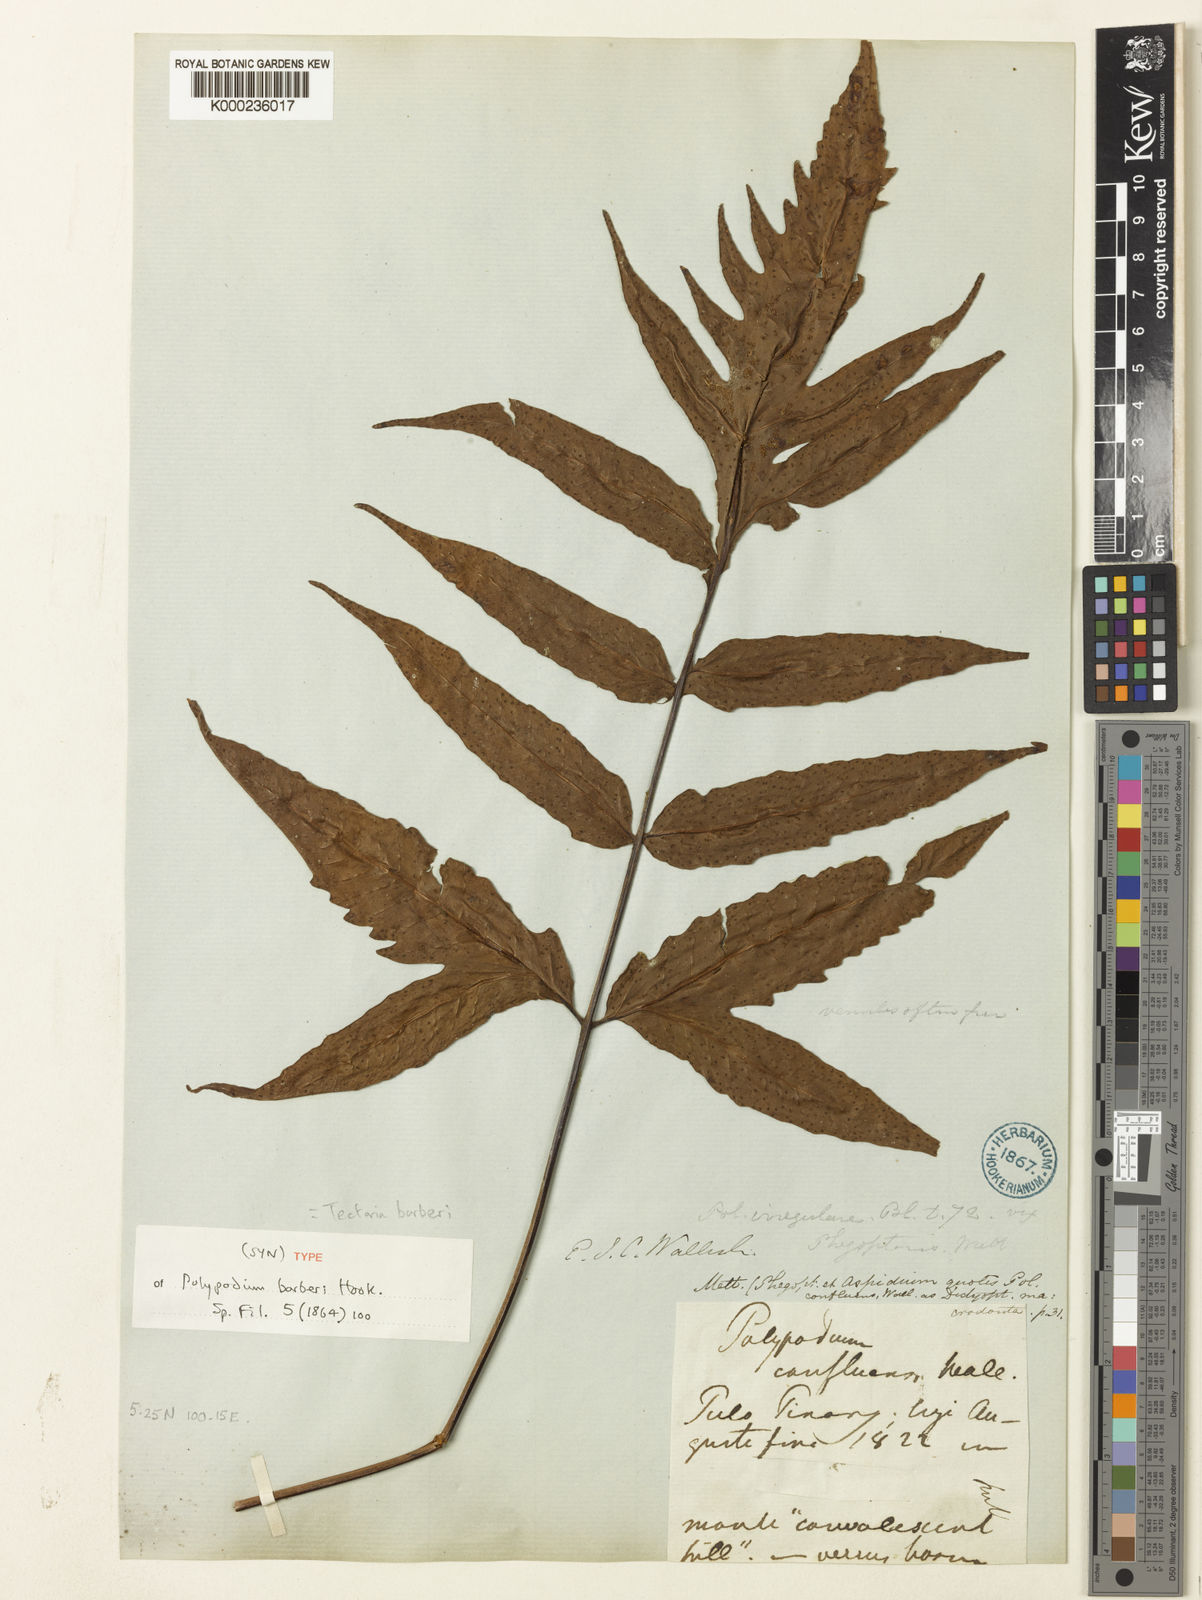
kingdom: Plantae
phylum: Tracheophyta
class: Polypodiopsida
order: Polypodiales
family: Tectariaceae
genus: Tectaria
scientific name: Tectaria barberi
